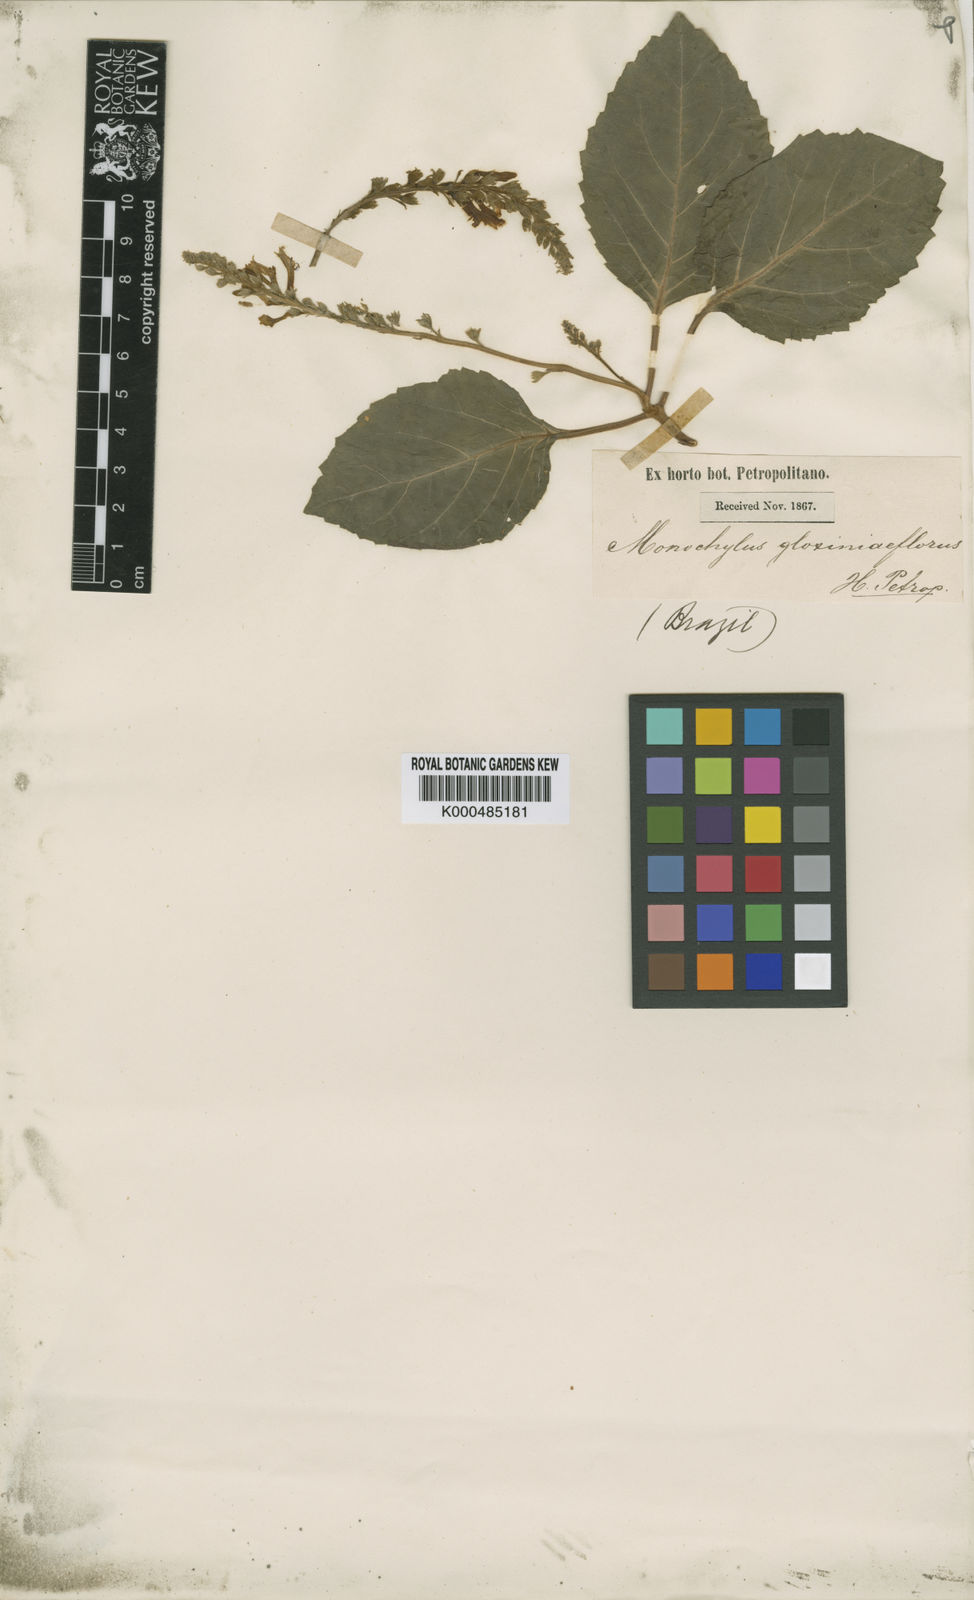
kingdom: Plantae
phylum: Tracheophyta
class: Magnoliopsida
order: Lamiales
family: Lamiaceae
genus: Monochilus
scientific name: Monochilus gloxinifolius
